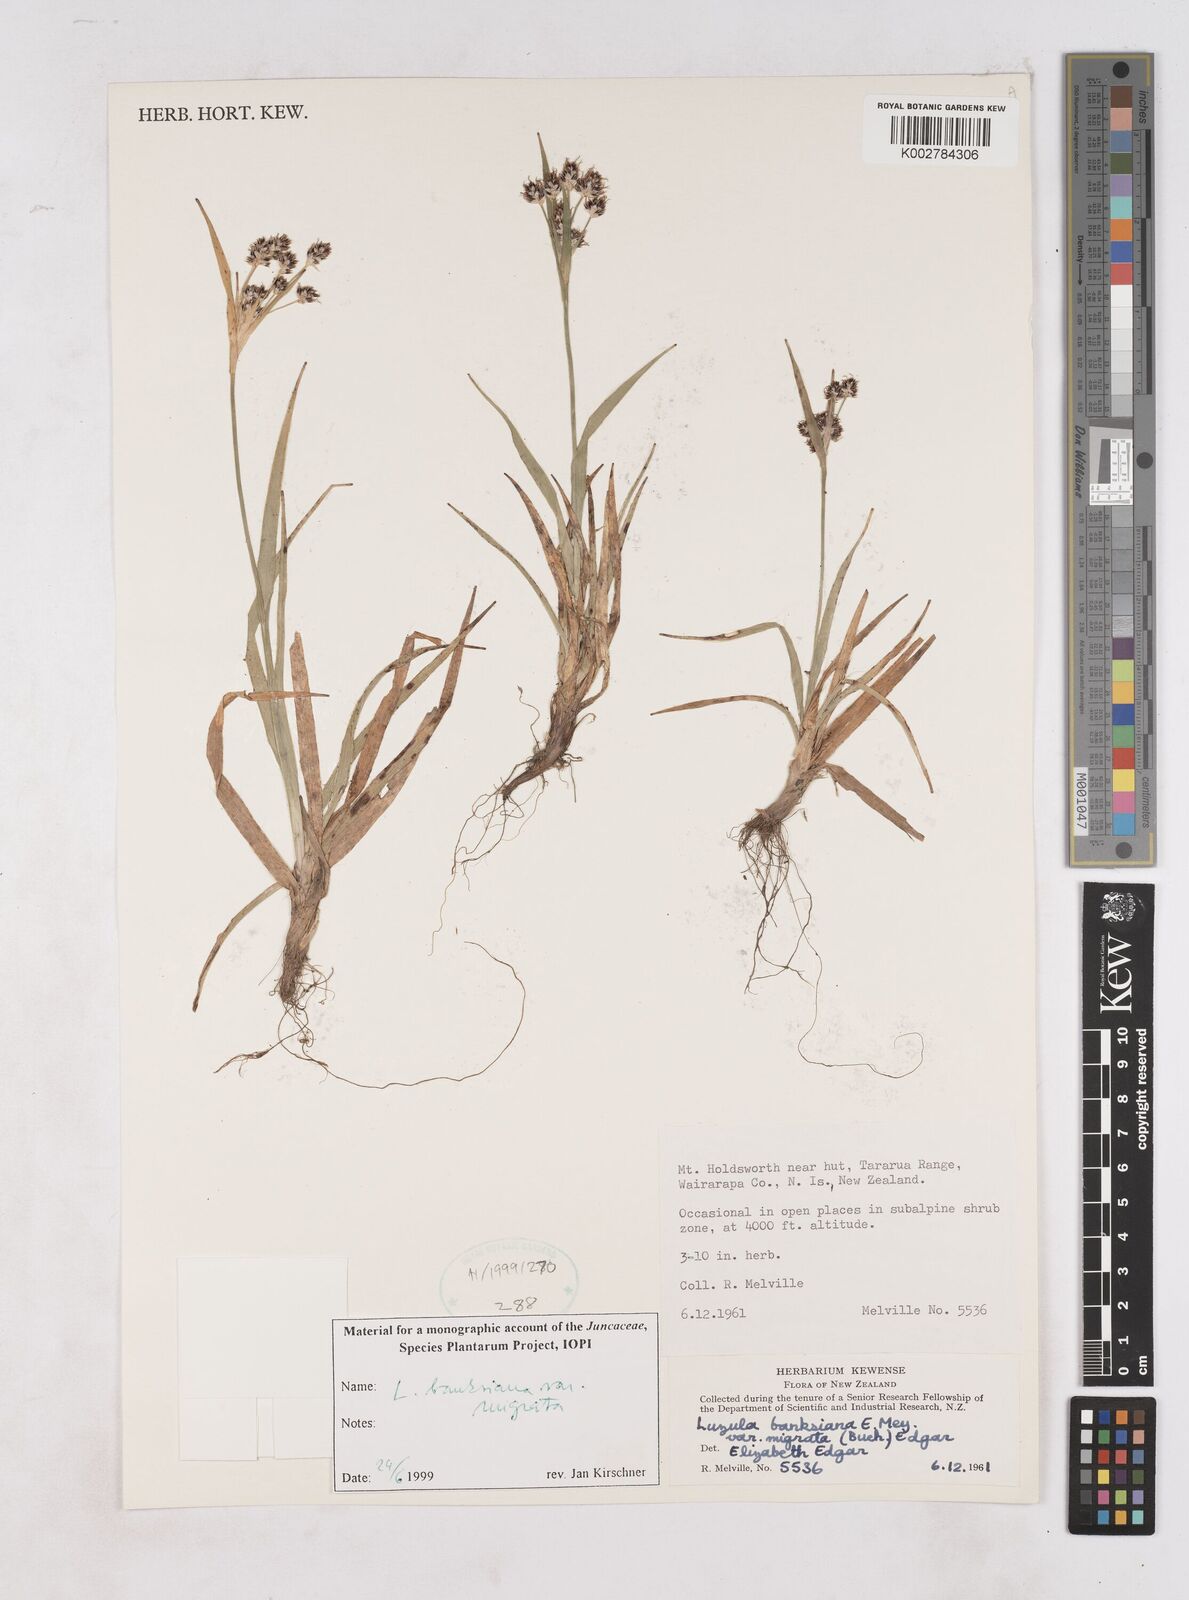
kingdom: Plantae
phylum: Tracheophyta
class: Liliopsida
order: Poales
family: Juncaceae
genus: Luzula
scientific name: Luzula banksiana
